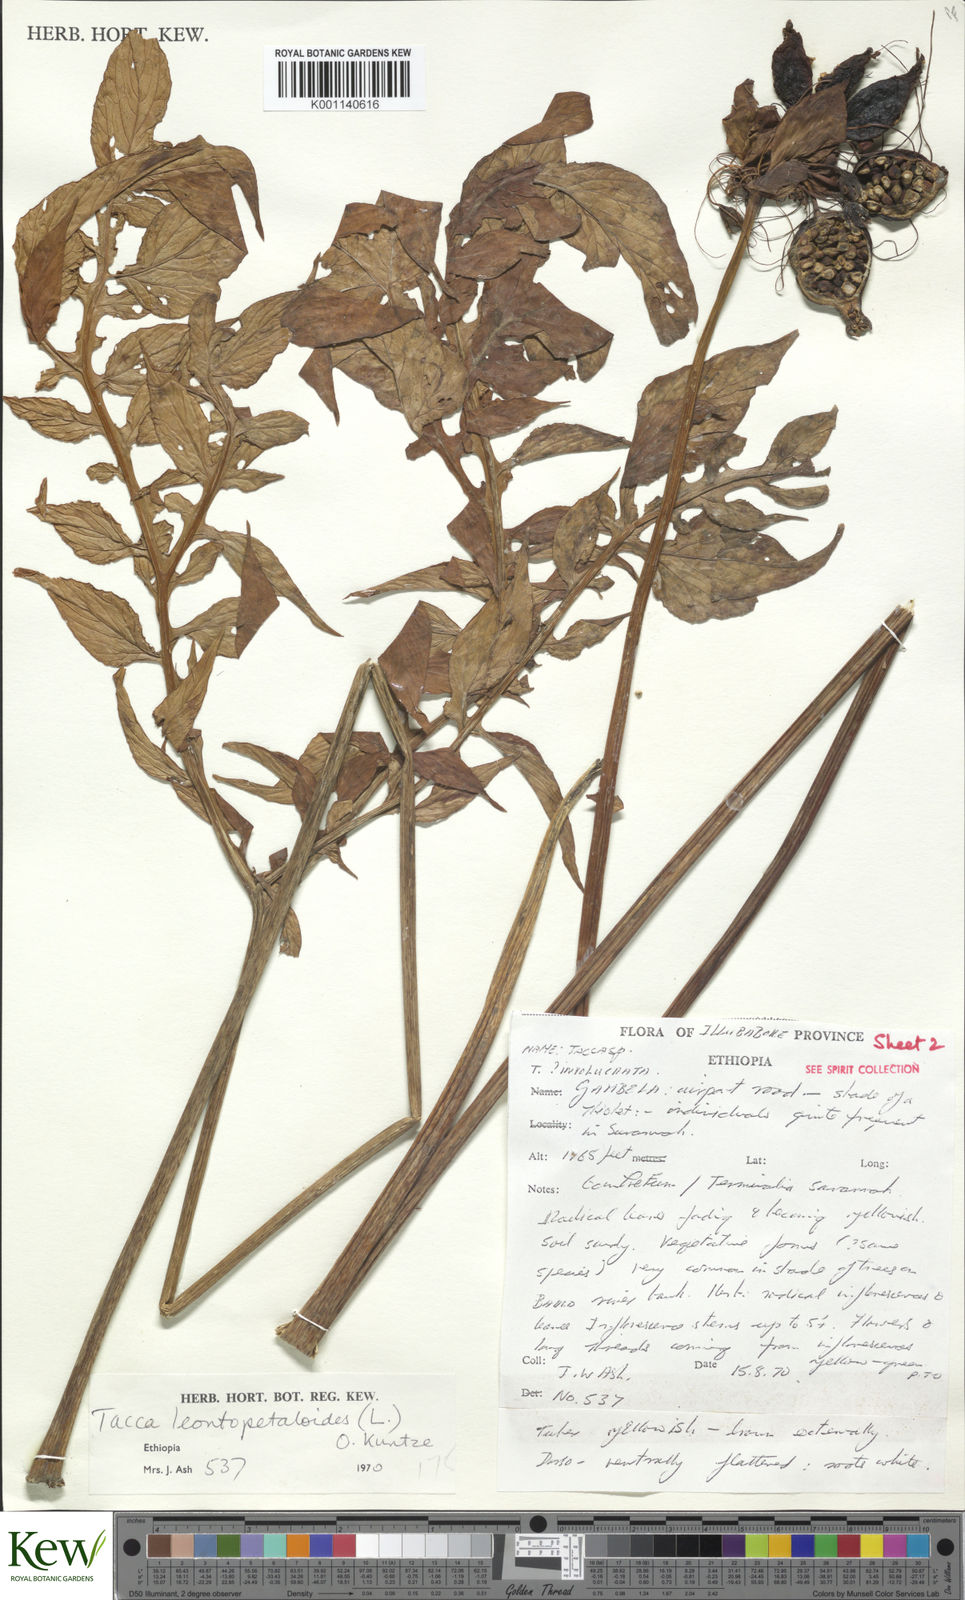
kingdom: Plantae
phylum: Tracheophyta
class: Liliopsida
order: Dioscoreales
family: Dioscoreaceae
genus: Tacca
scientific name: Tacca leontopetaloides
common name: Arrowroot
